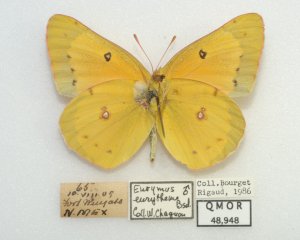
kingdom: Animalia
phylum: Arthropoda
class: Insecta
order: Lepidoptera
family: Pieridae
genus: Colias
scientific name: Colias eurytheme
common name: Orange Sulphur
